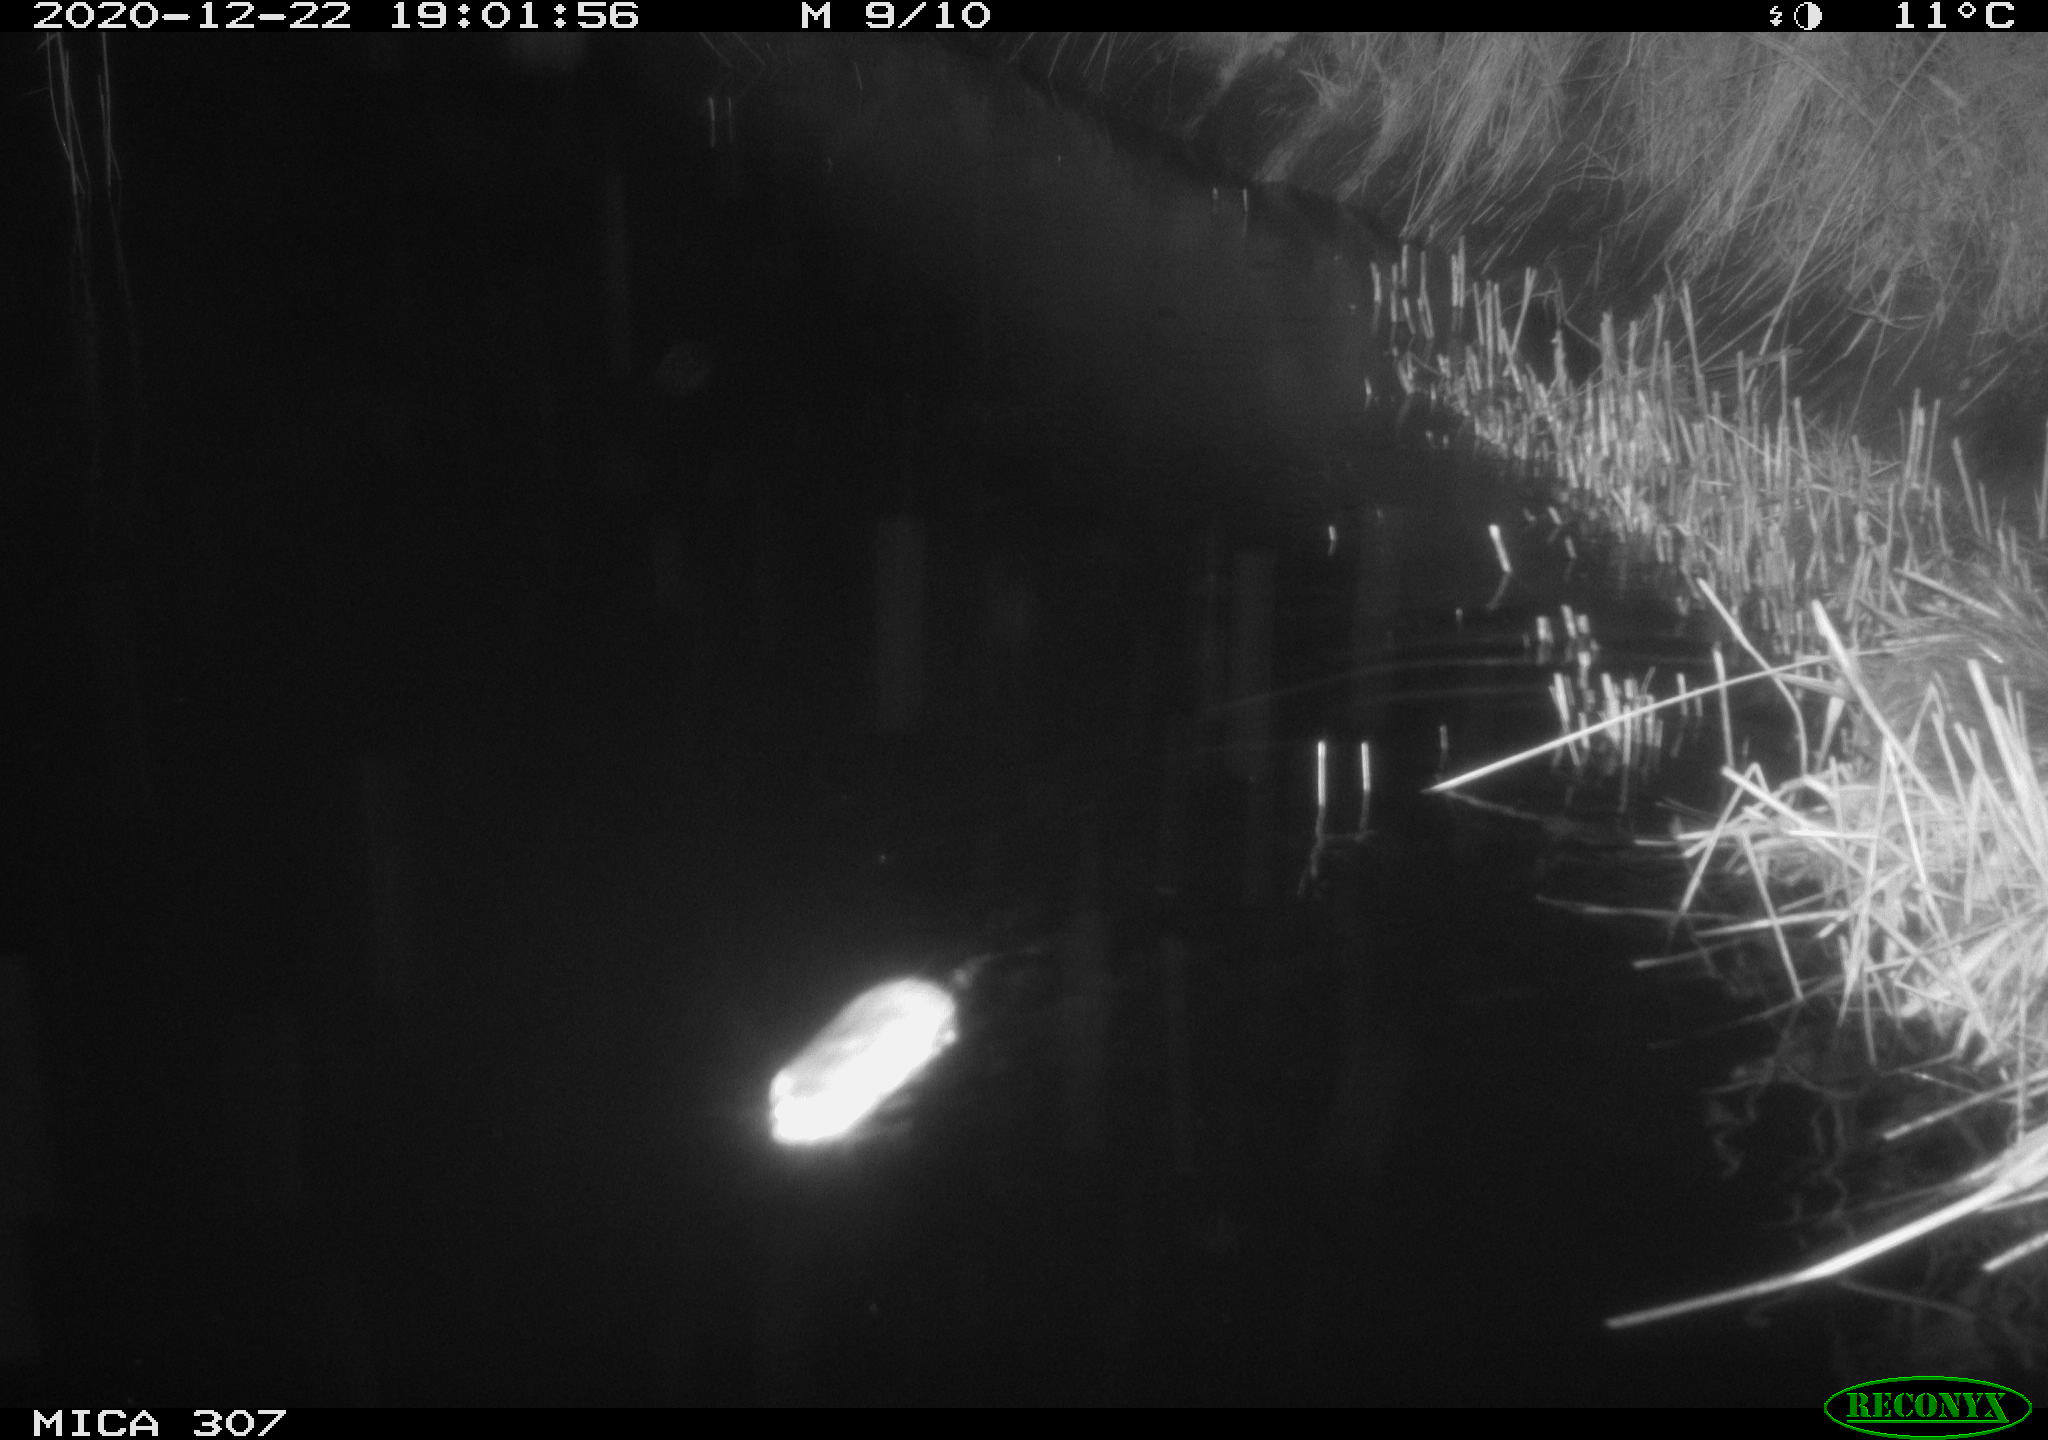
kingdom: Animalia
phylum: Chordata
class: Mammalia
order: Rodentia
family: Muridae
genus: Rattus
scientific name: Rattus norvegicus
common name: Brown rat
